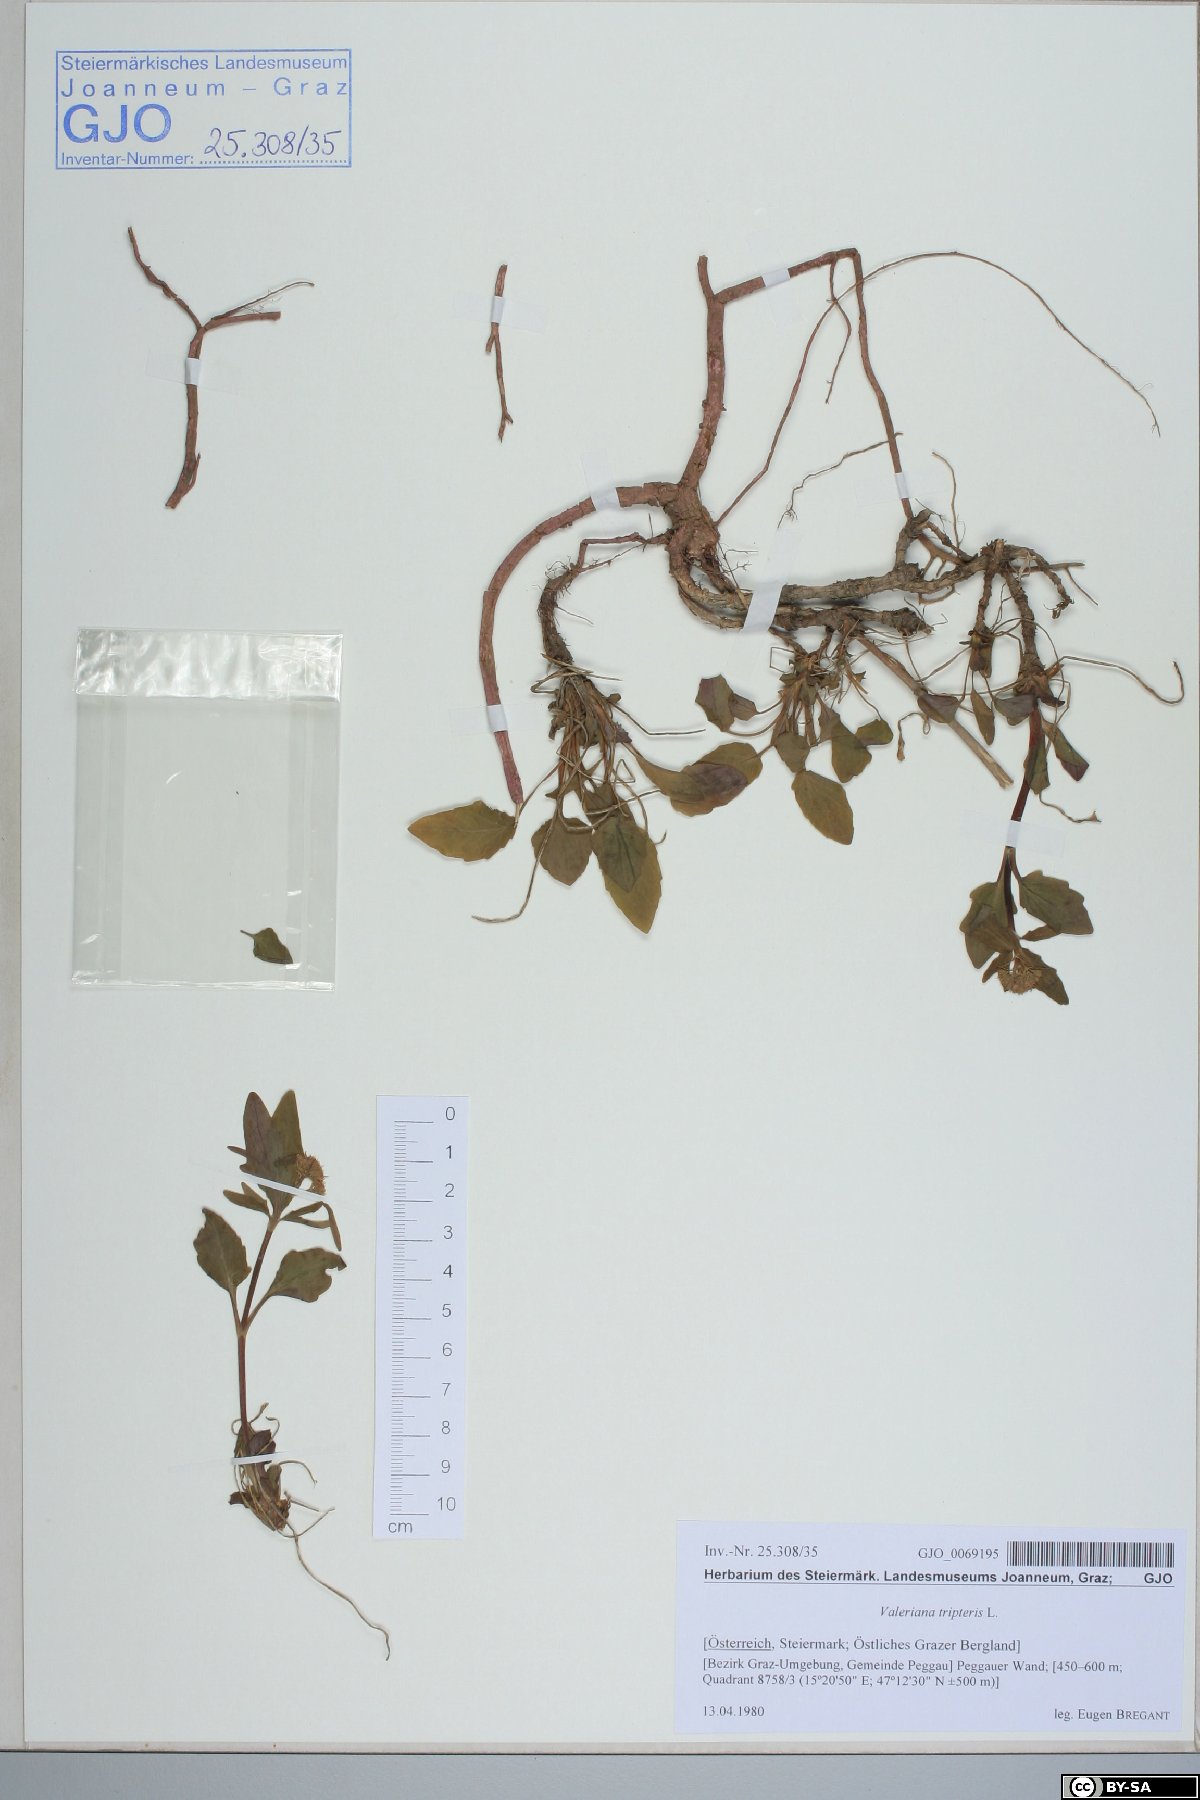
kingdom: Plantae
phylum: Tracheophyta
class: Magnoliopsida
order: Dipsacales
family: Caprifoliaceae
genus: Valeriana
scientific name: Valeriana tripteris
